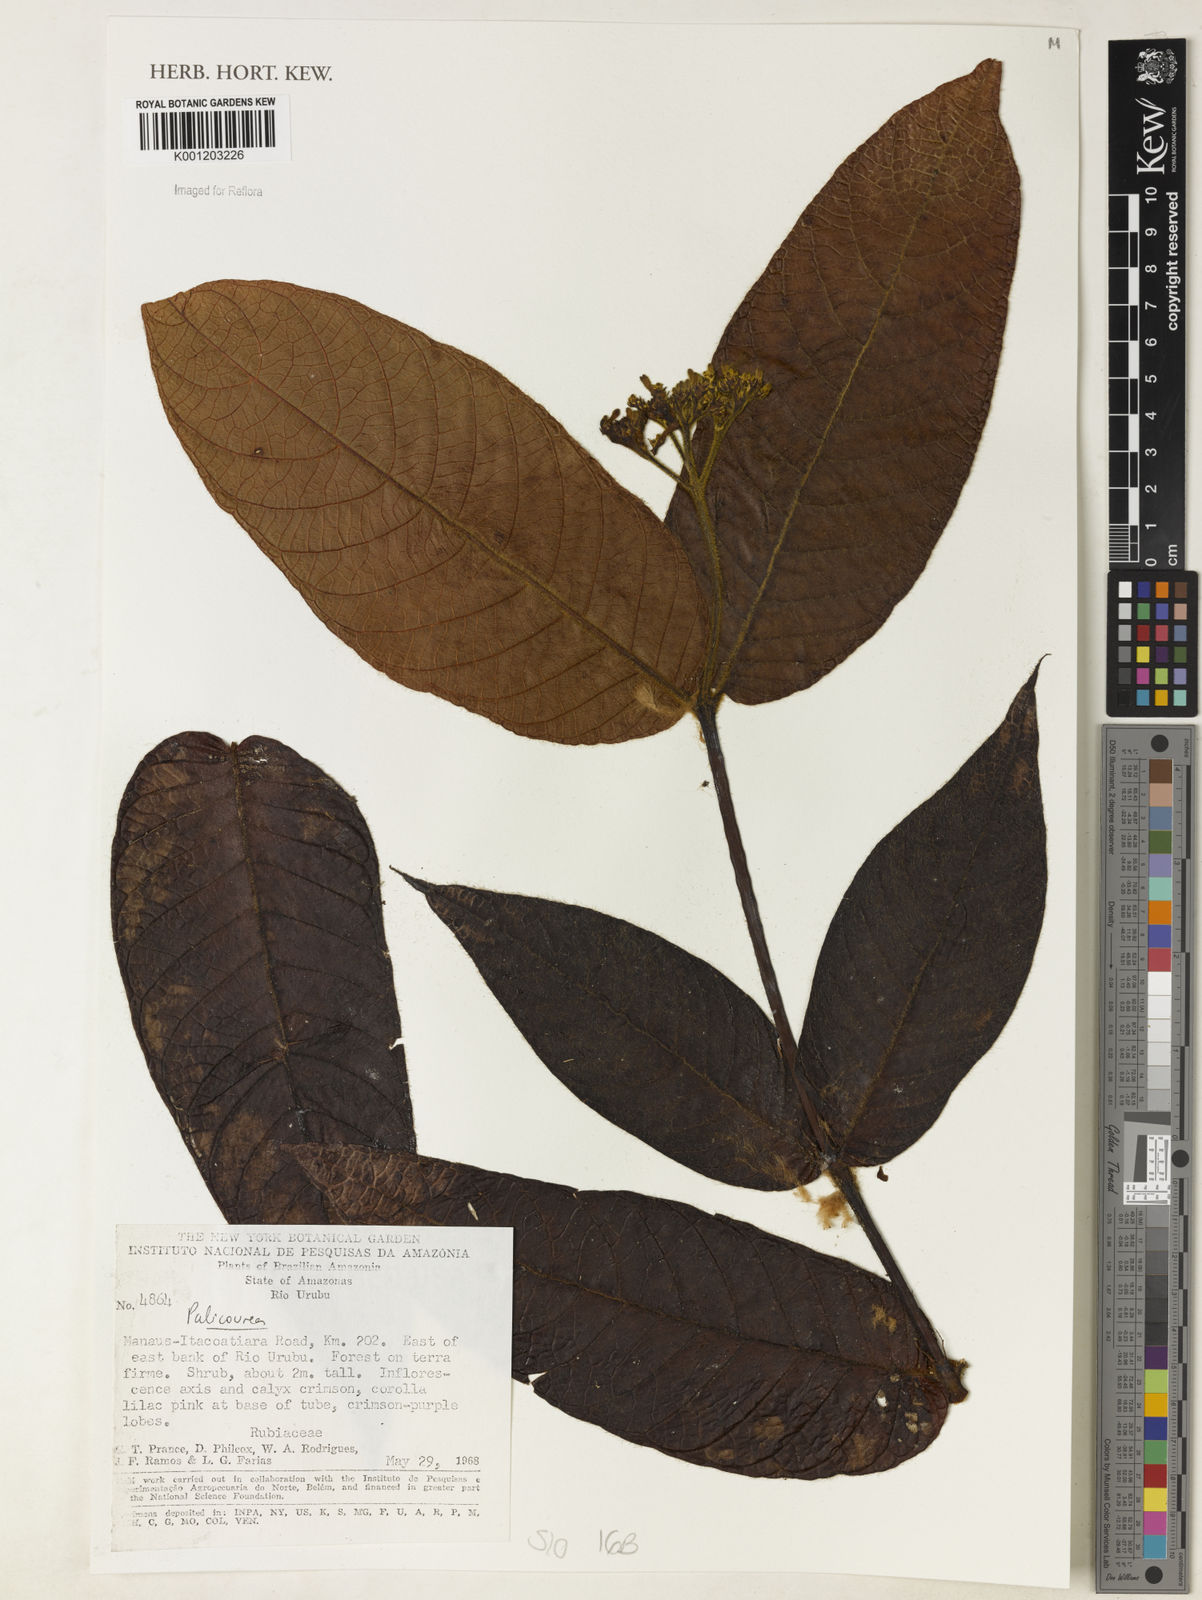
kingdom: Plantae
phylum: Tracheophyta
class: Magnoliopsida
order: Gentianales
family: Rubiaceae
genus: Palicourea
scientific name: Palicourea
